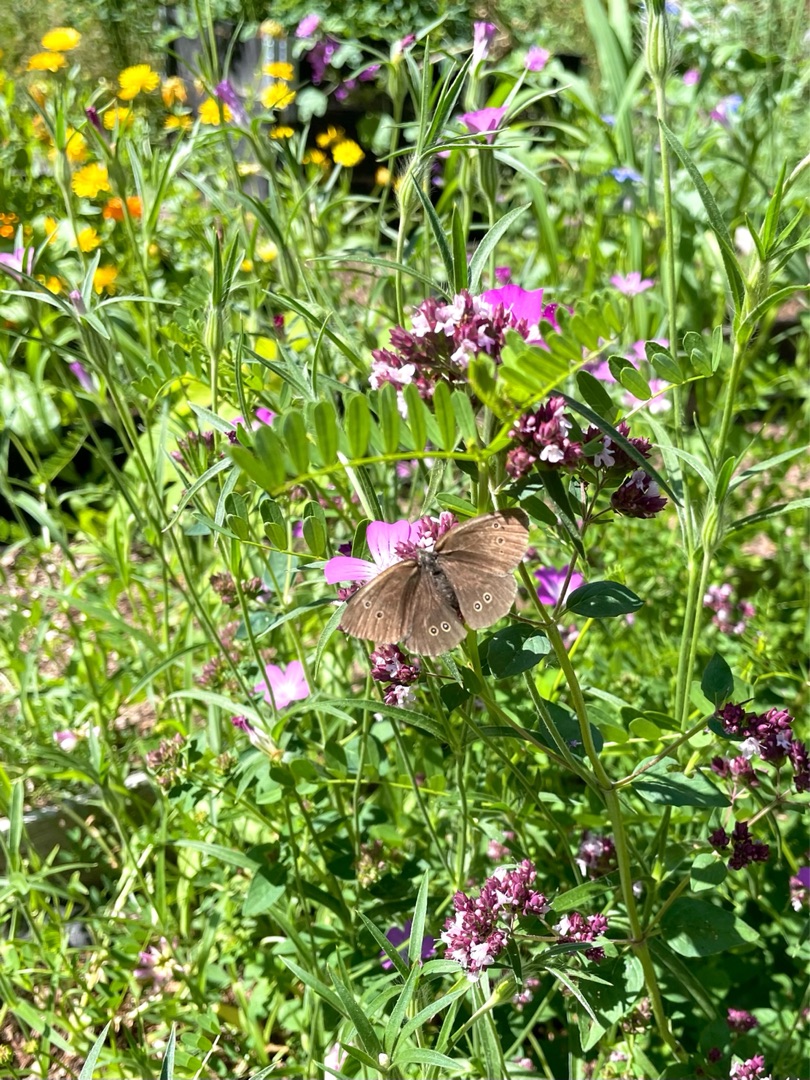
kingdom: Animalia
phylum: Arthropoda
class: Insecta
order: Lepidoptera
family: Nymphalidae
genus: Aphantopus
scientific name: Aphantopus hyperantus
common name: Engrandøje
